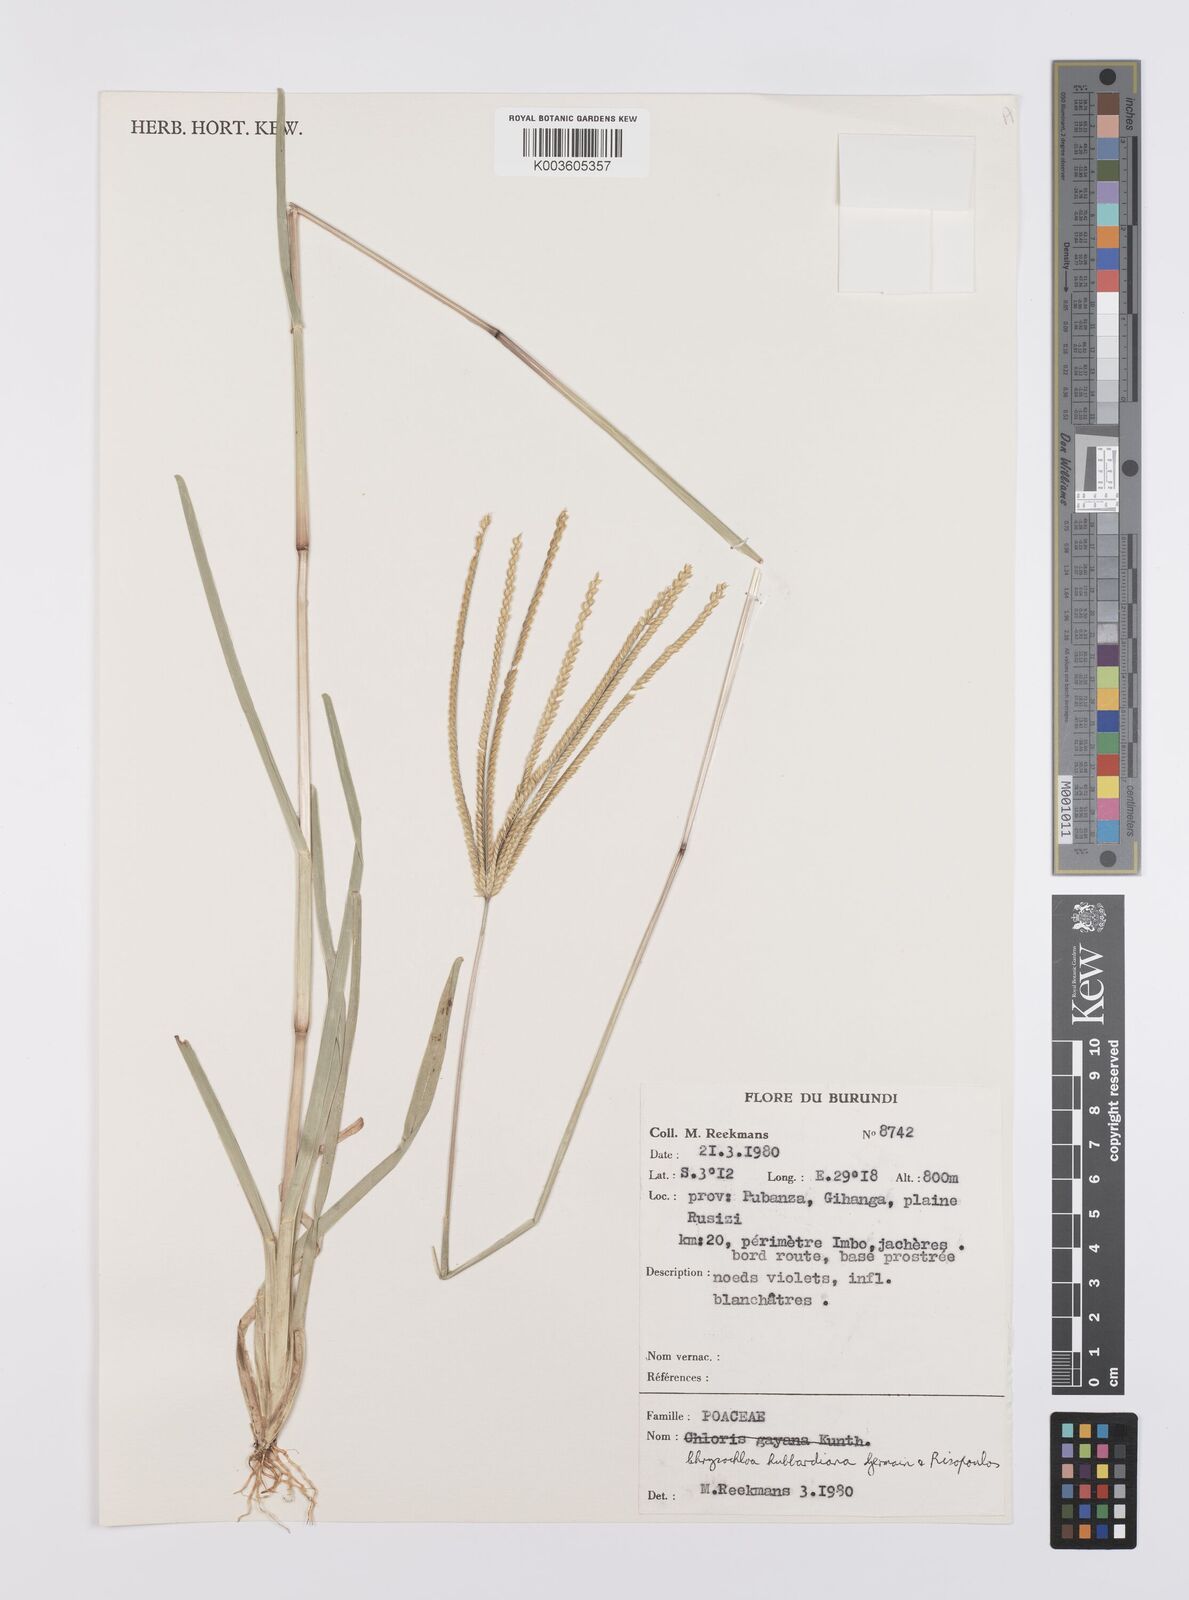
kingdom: Plantae
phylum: Tracheophyta
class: Liliopsida
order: Poales
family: Poaceae
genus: Chrysochloa
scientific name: Chrysochloa hubbardiana
